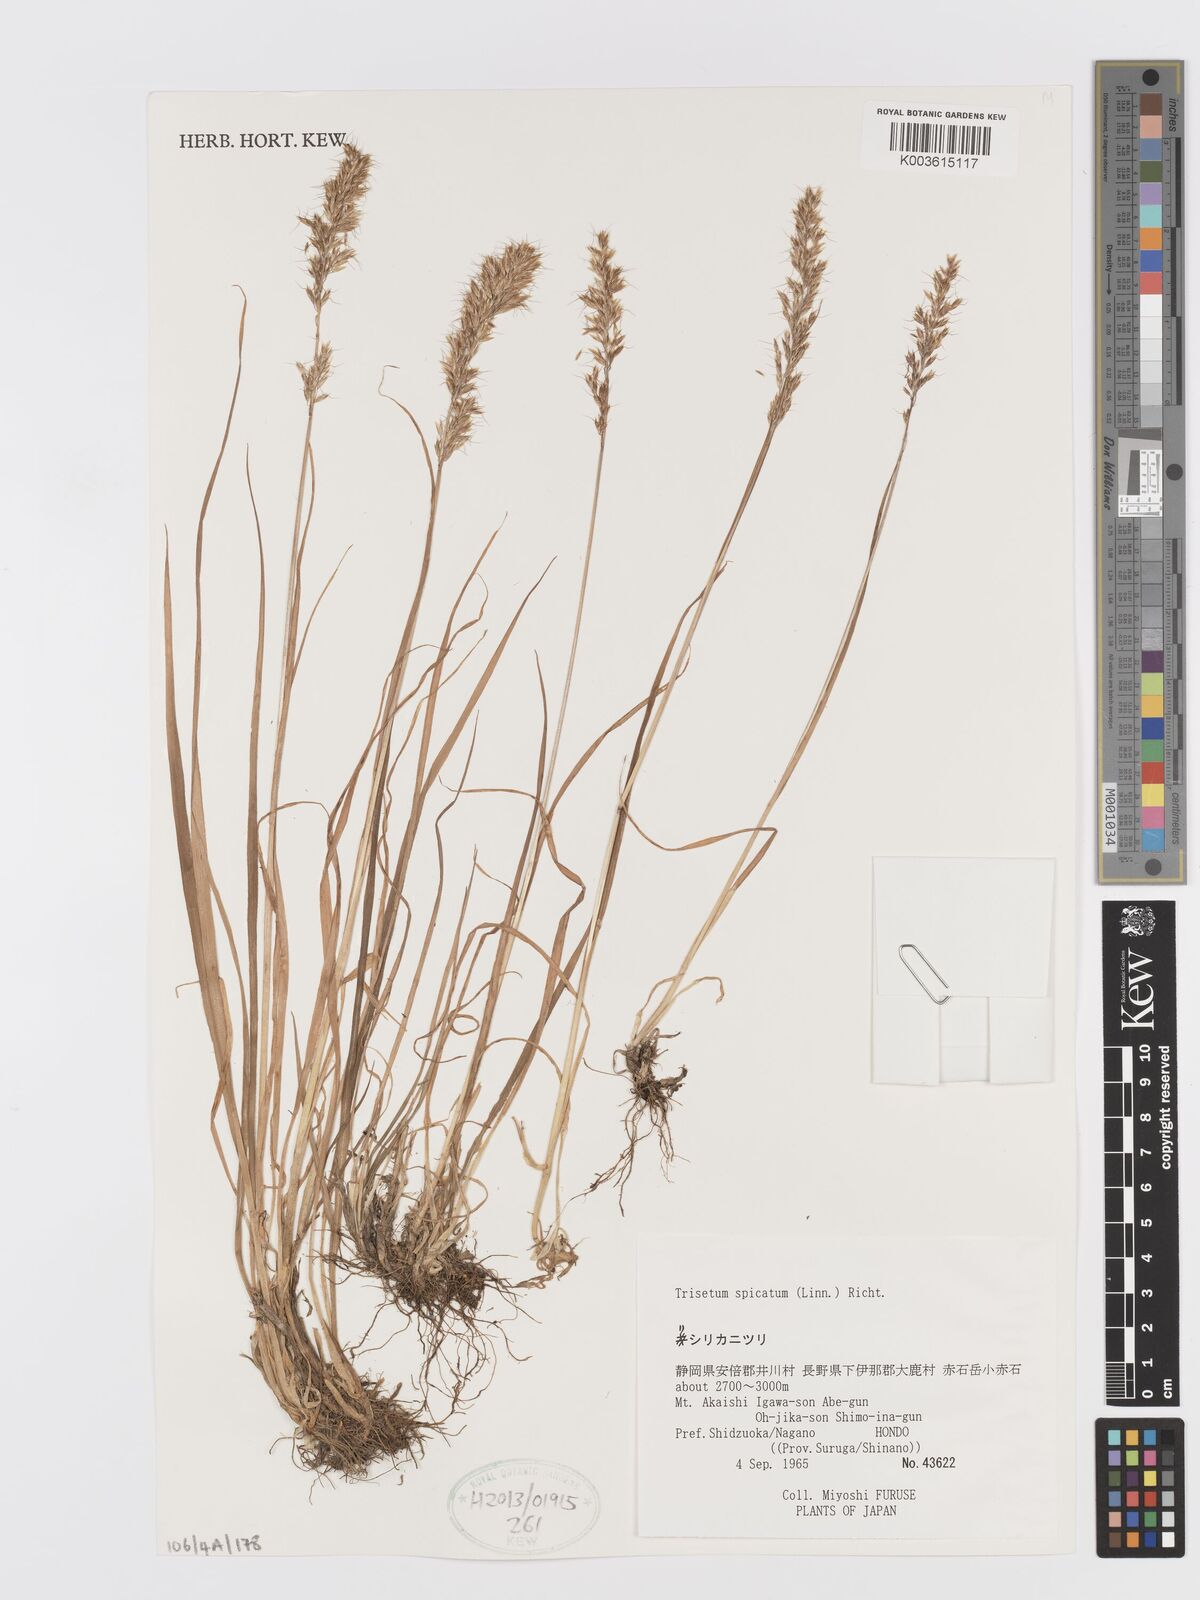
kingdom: Plantae
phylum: Tracheophyta
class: Liliopsida
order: Poales
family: Poaceae
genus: Koeleria
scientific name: Koeleria spicata
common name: Mountain trisetum
